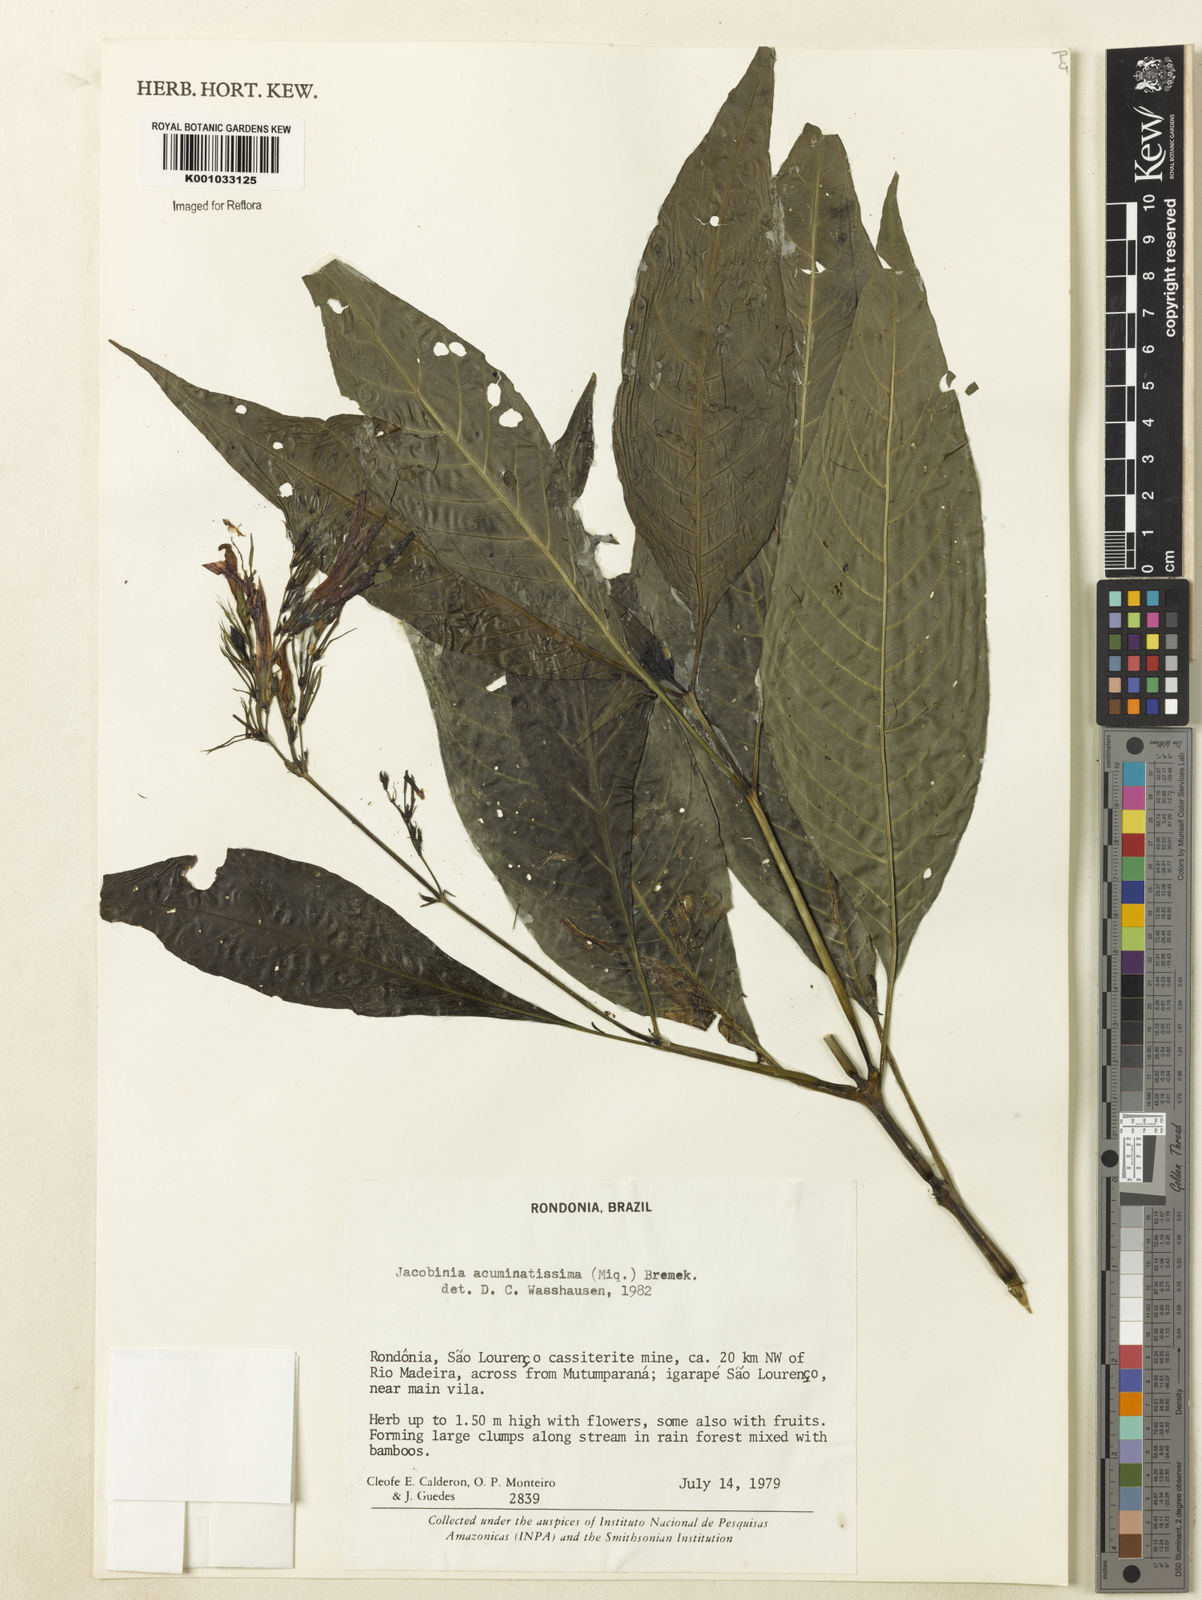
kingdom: Plantae
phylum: Tracheophyta
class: Magnoliopsida
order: Lamiales
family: Acanthaceae
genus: Dianthera
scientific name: Dianthera comata
